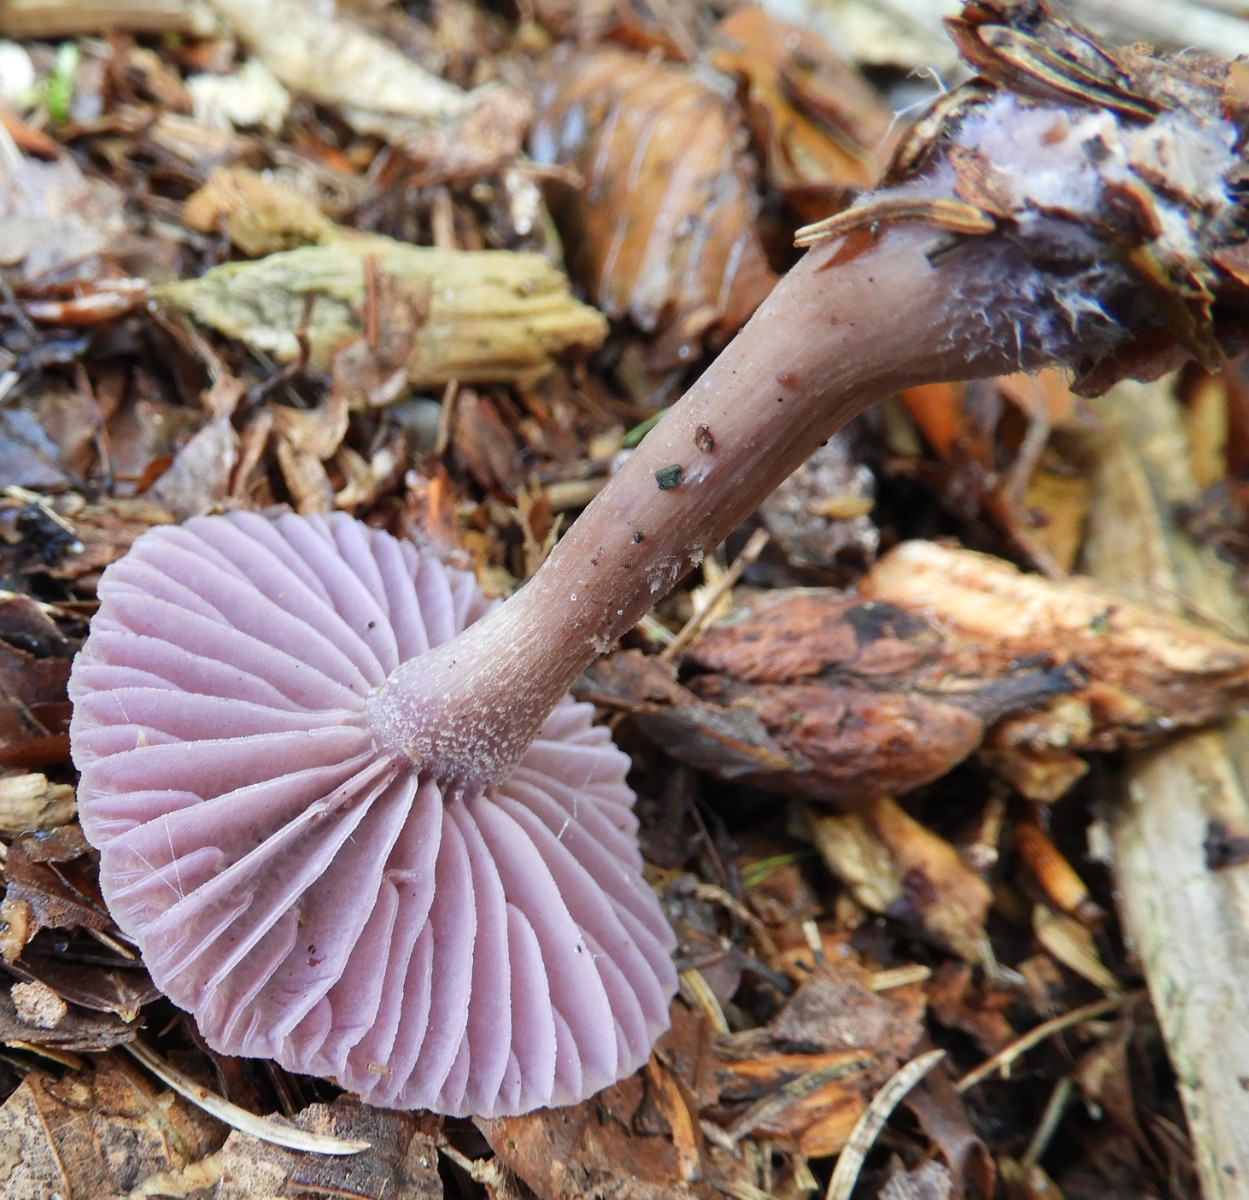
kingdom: Fungi
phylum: Basidiomycota
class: Agaricomycetes
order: Agaricales
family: Hydnangiaceae
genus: Laccaria
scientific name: Laccaria amethystina
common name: violet ametysthat
